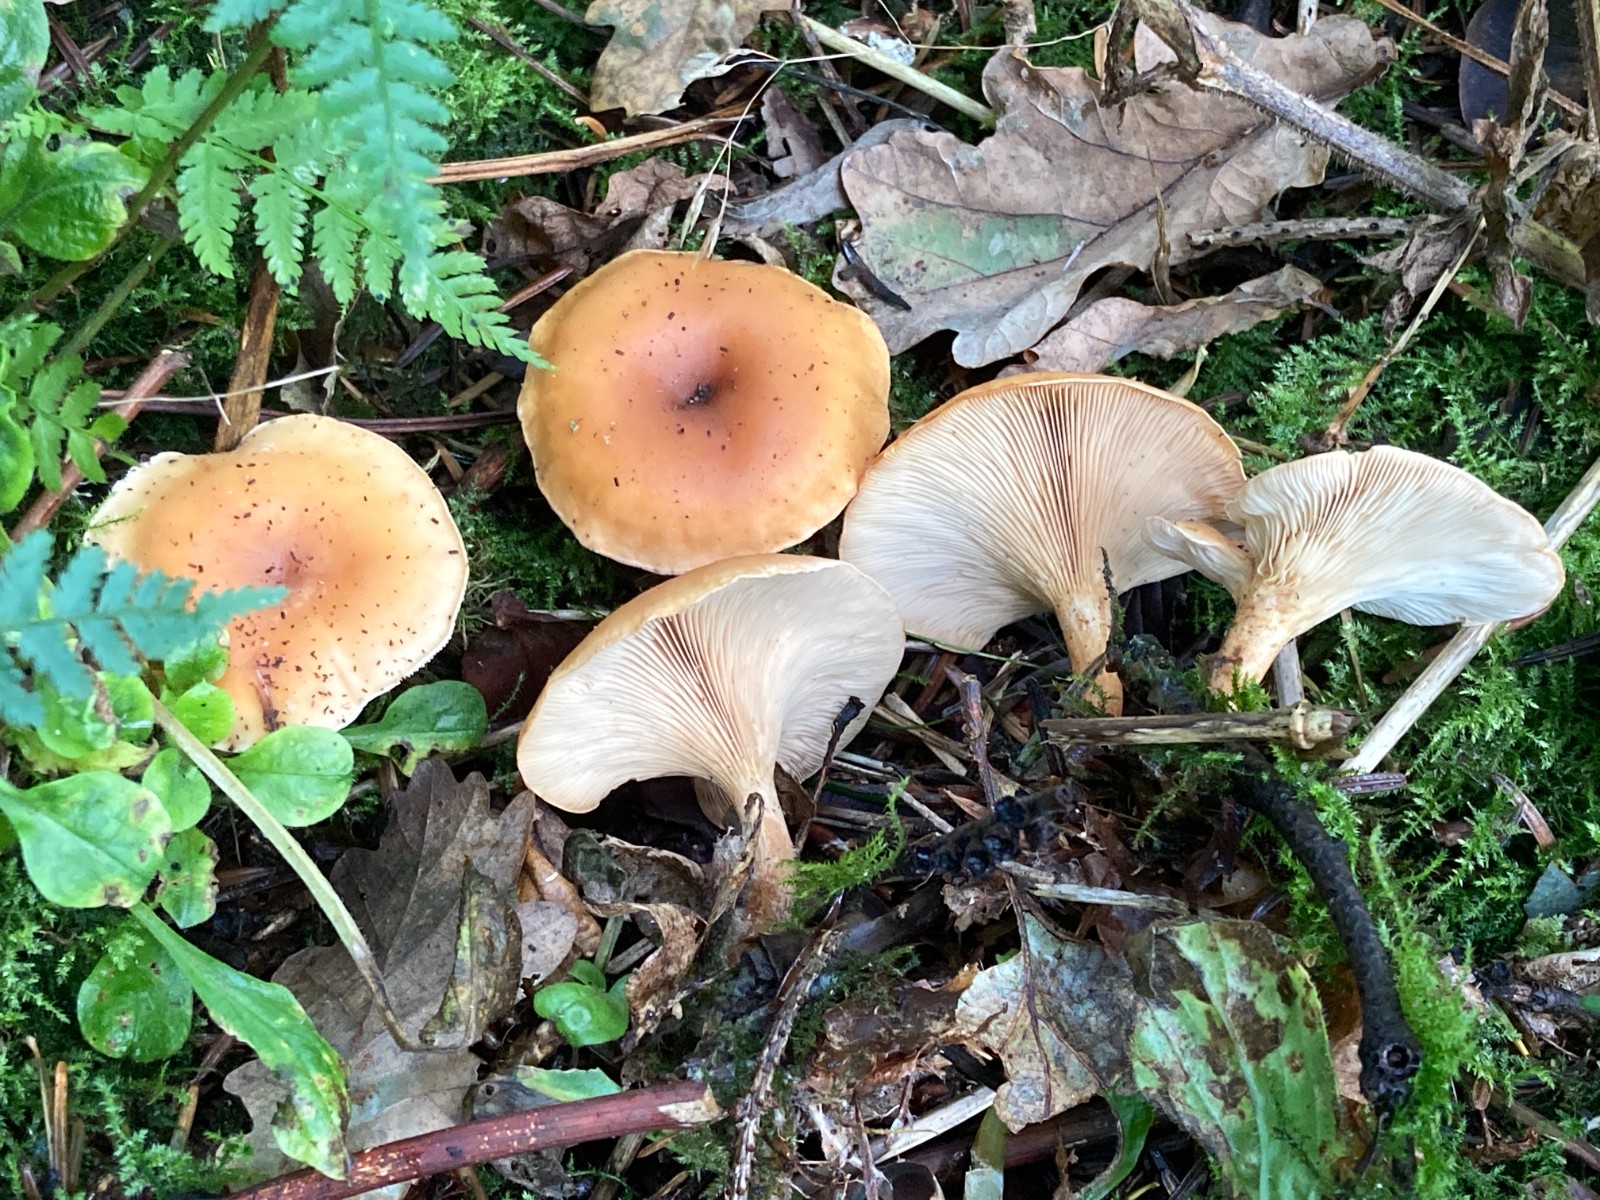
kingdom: Fungi
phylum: Basidiomycota
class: Agaricomycetes
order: Agaricales
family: Tricholomataceae
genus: Paralepista
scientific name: Paralepista flaccida
